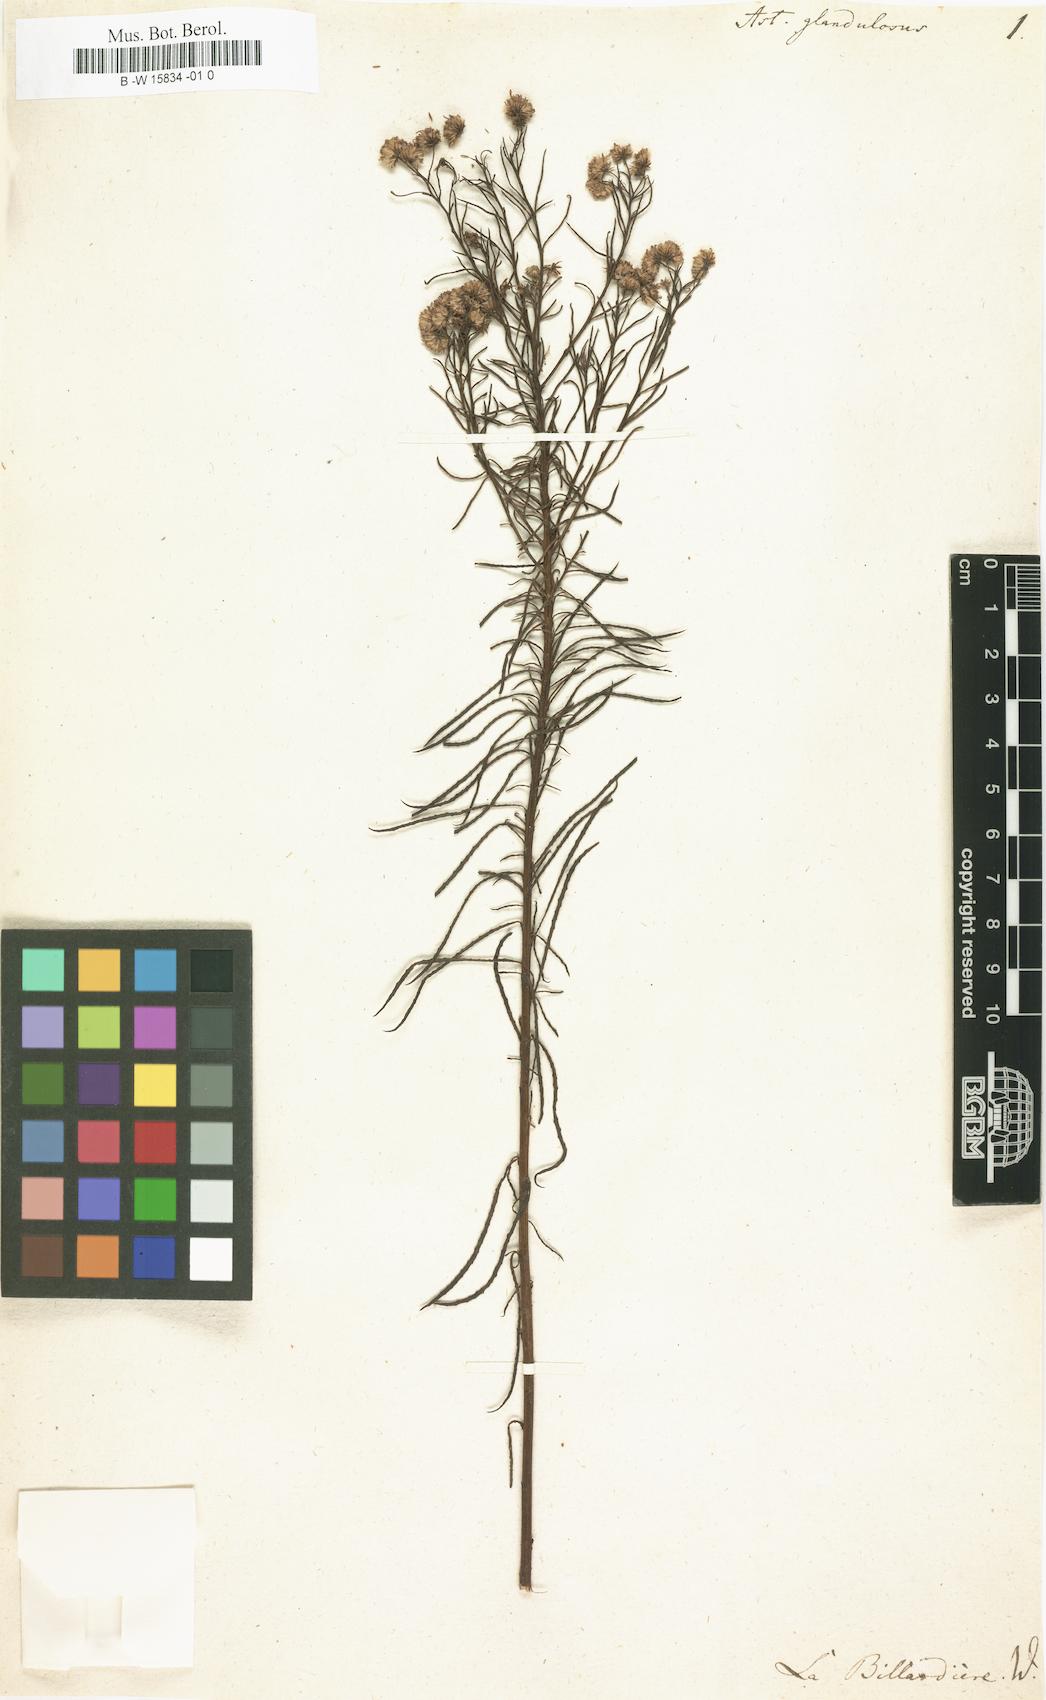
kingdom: Plantae
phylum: Tracheophyta
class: Magnoliopsida
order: Asterales
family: Asteraceae
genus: Spongotrichum
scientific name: Spongotrichum glandulosum
